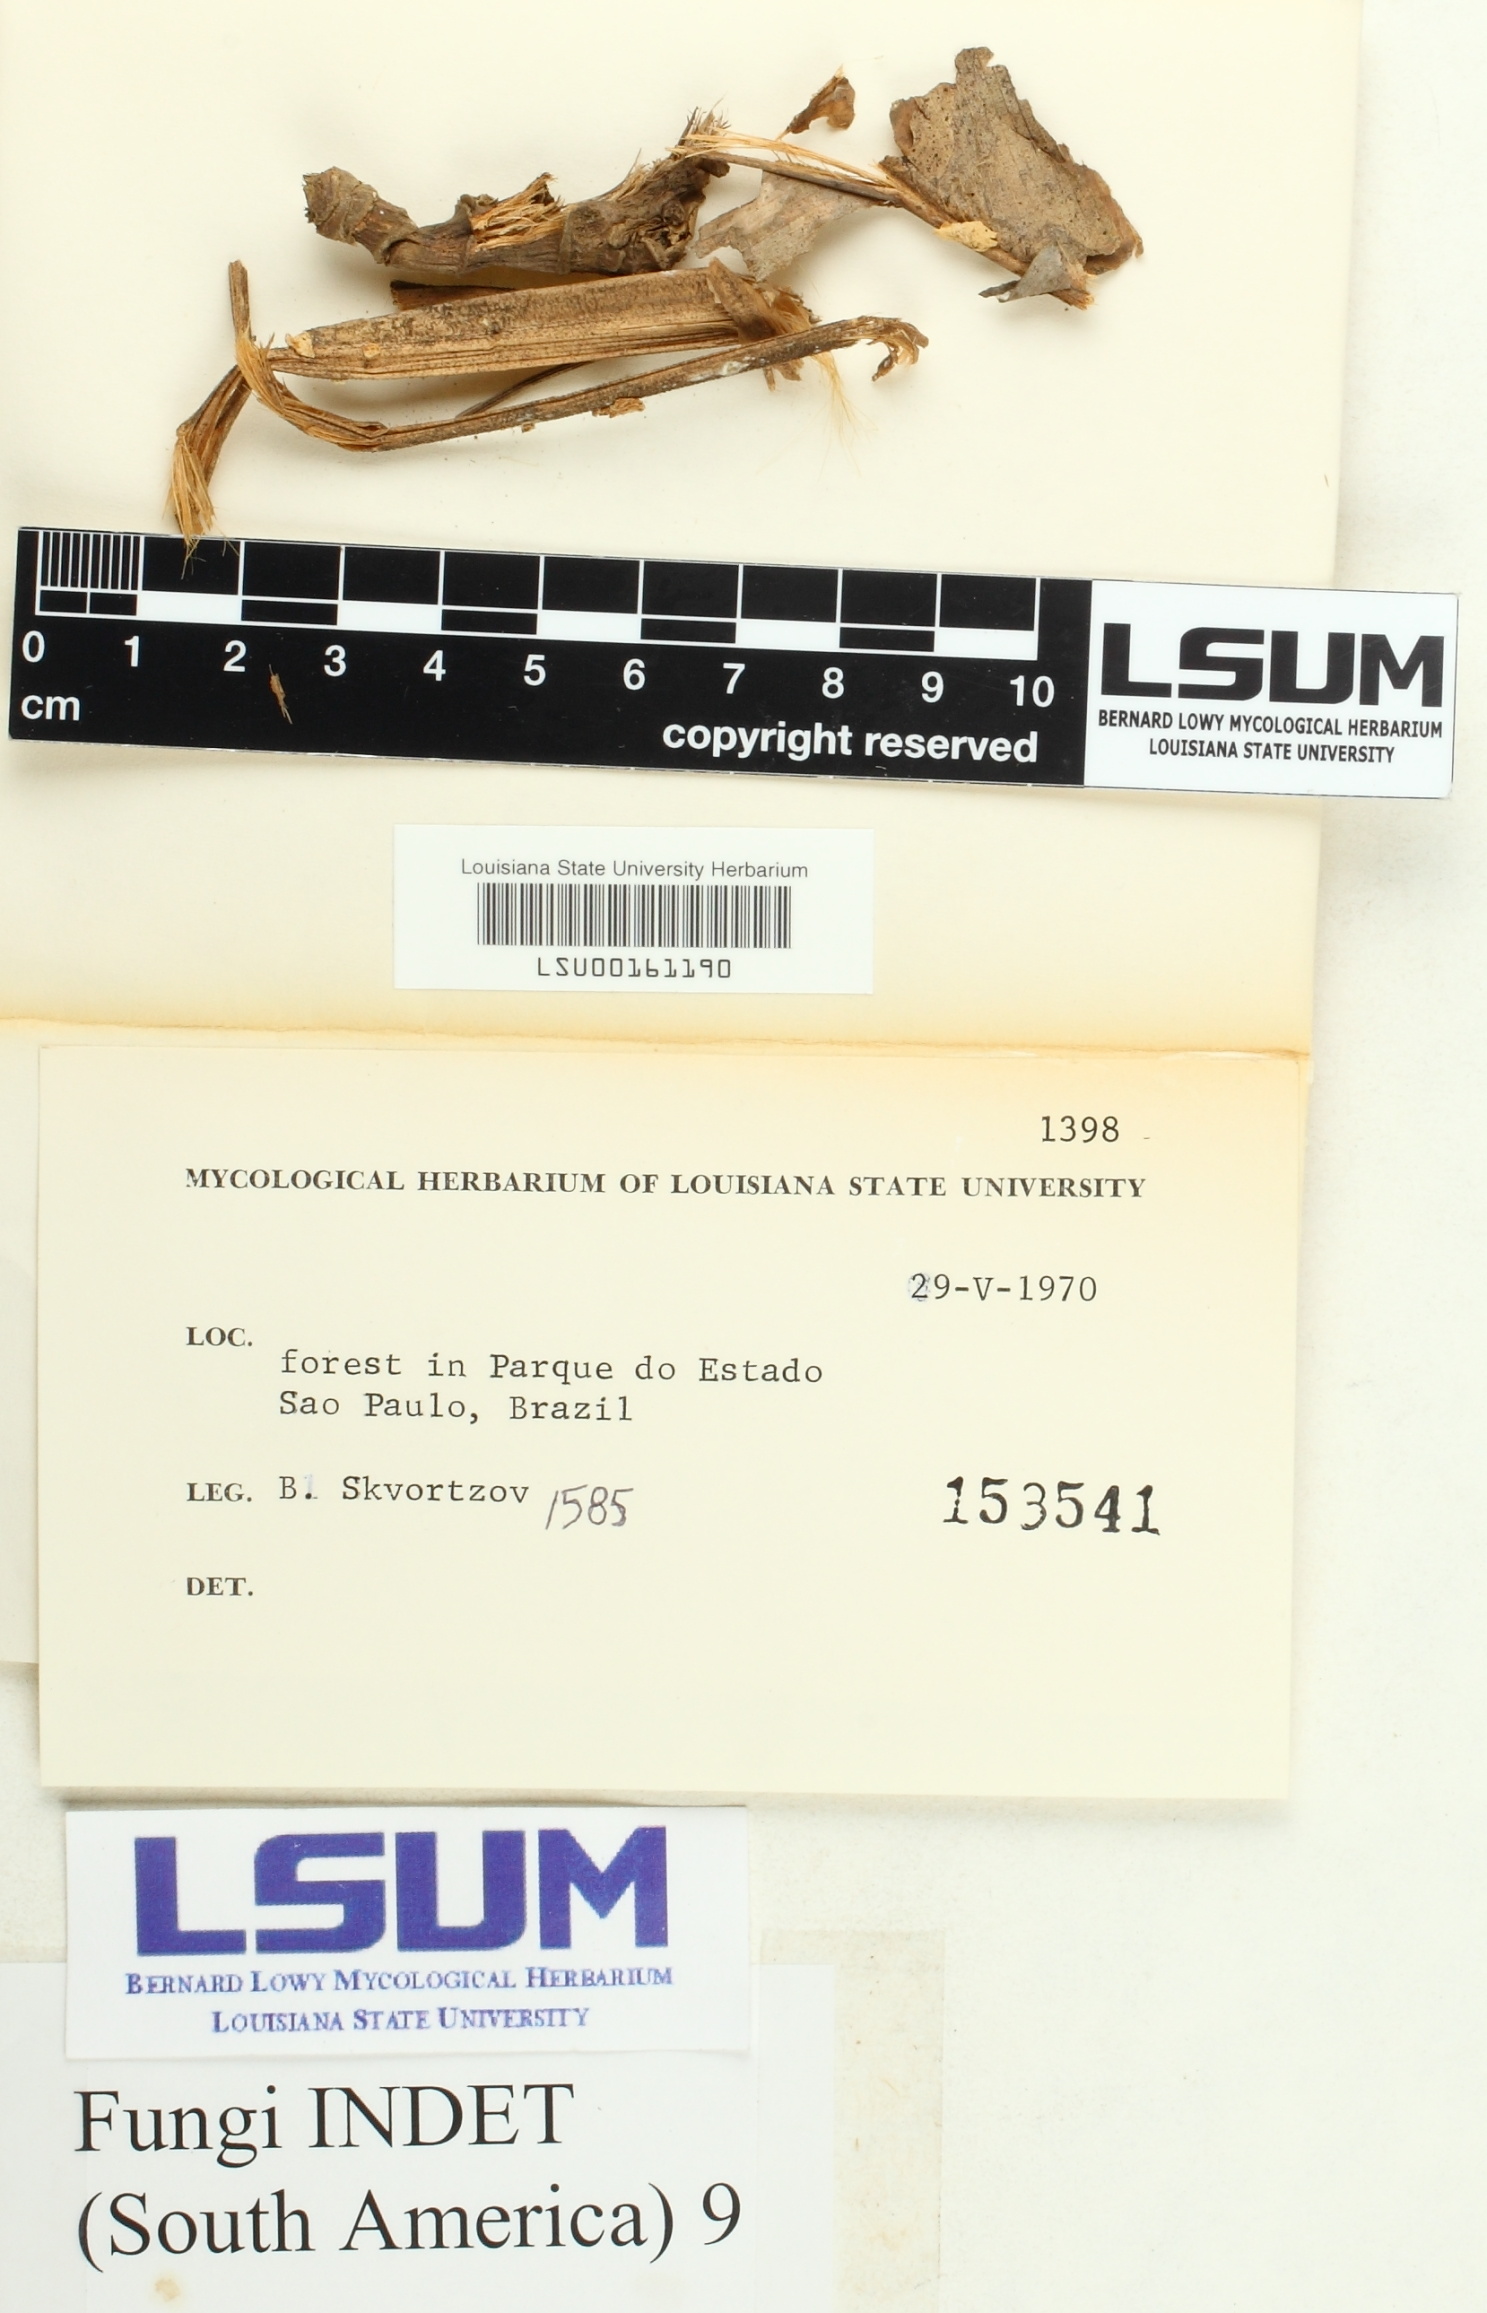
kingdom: Fungi
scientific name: Fungi
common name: Fungi
